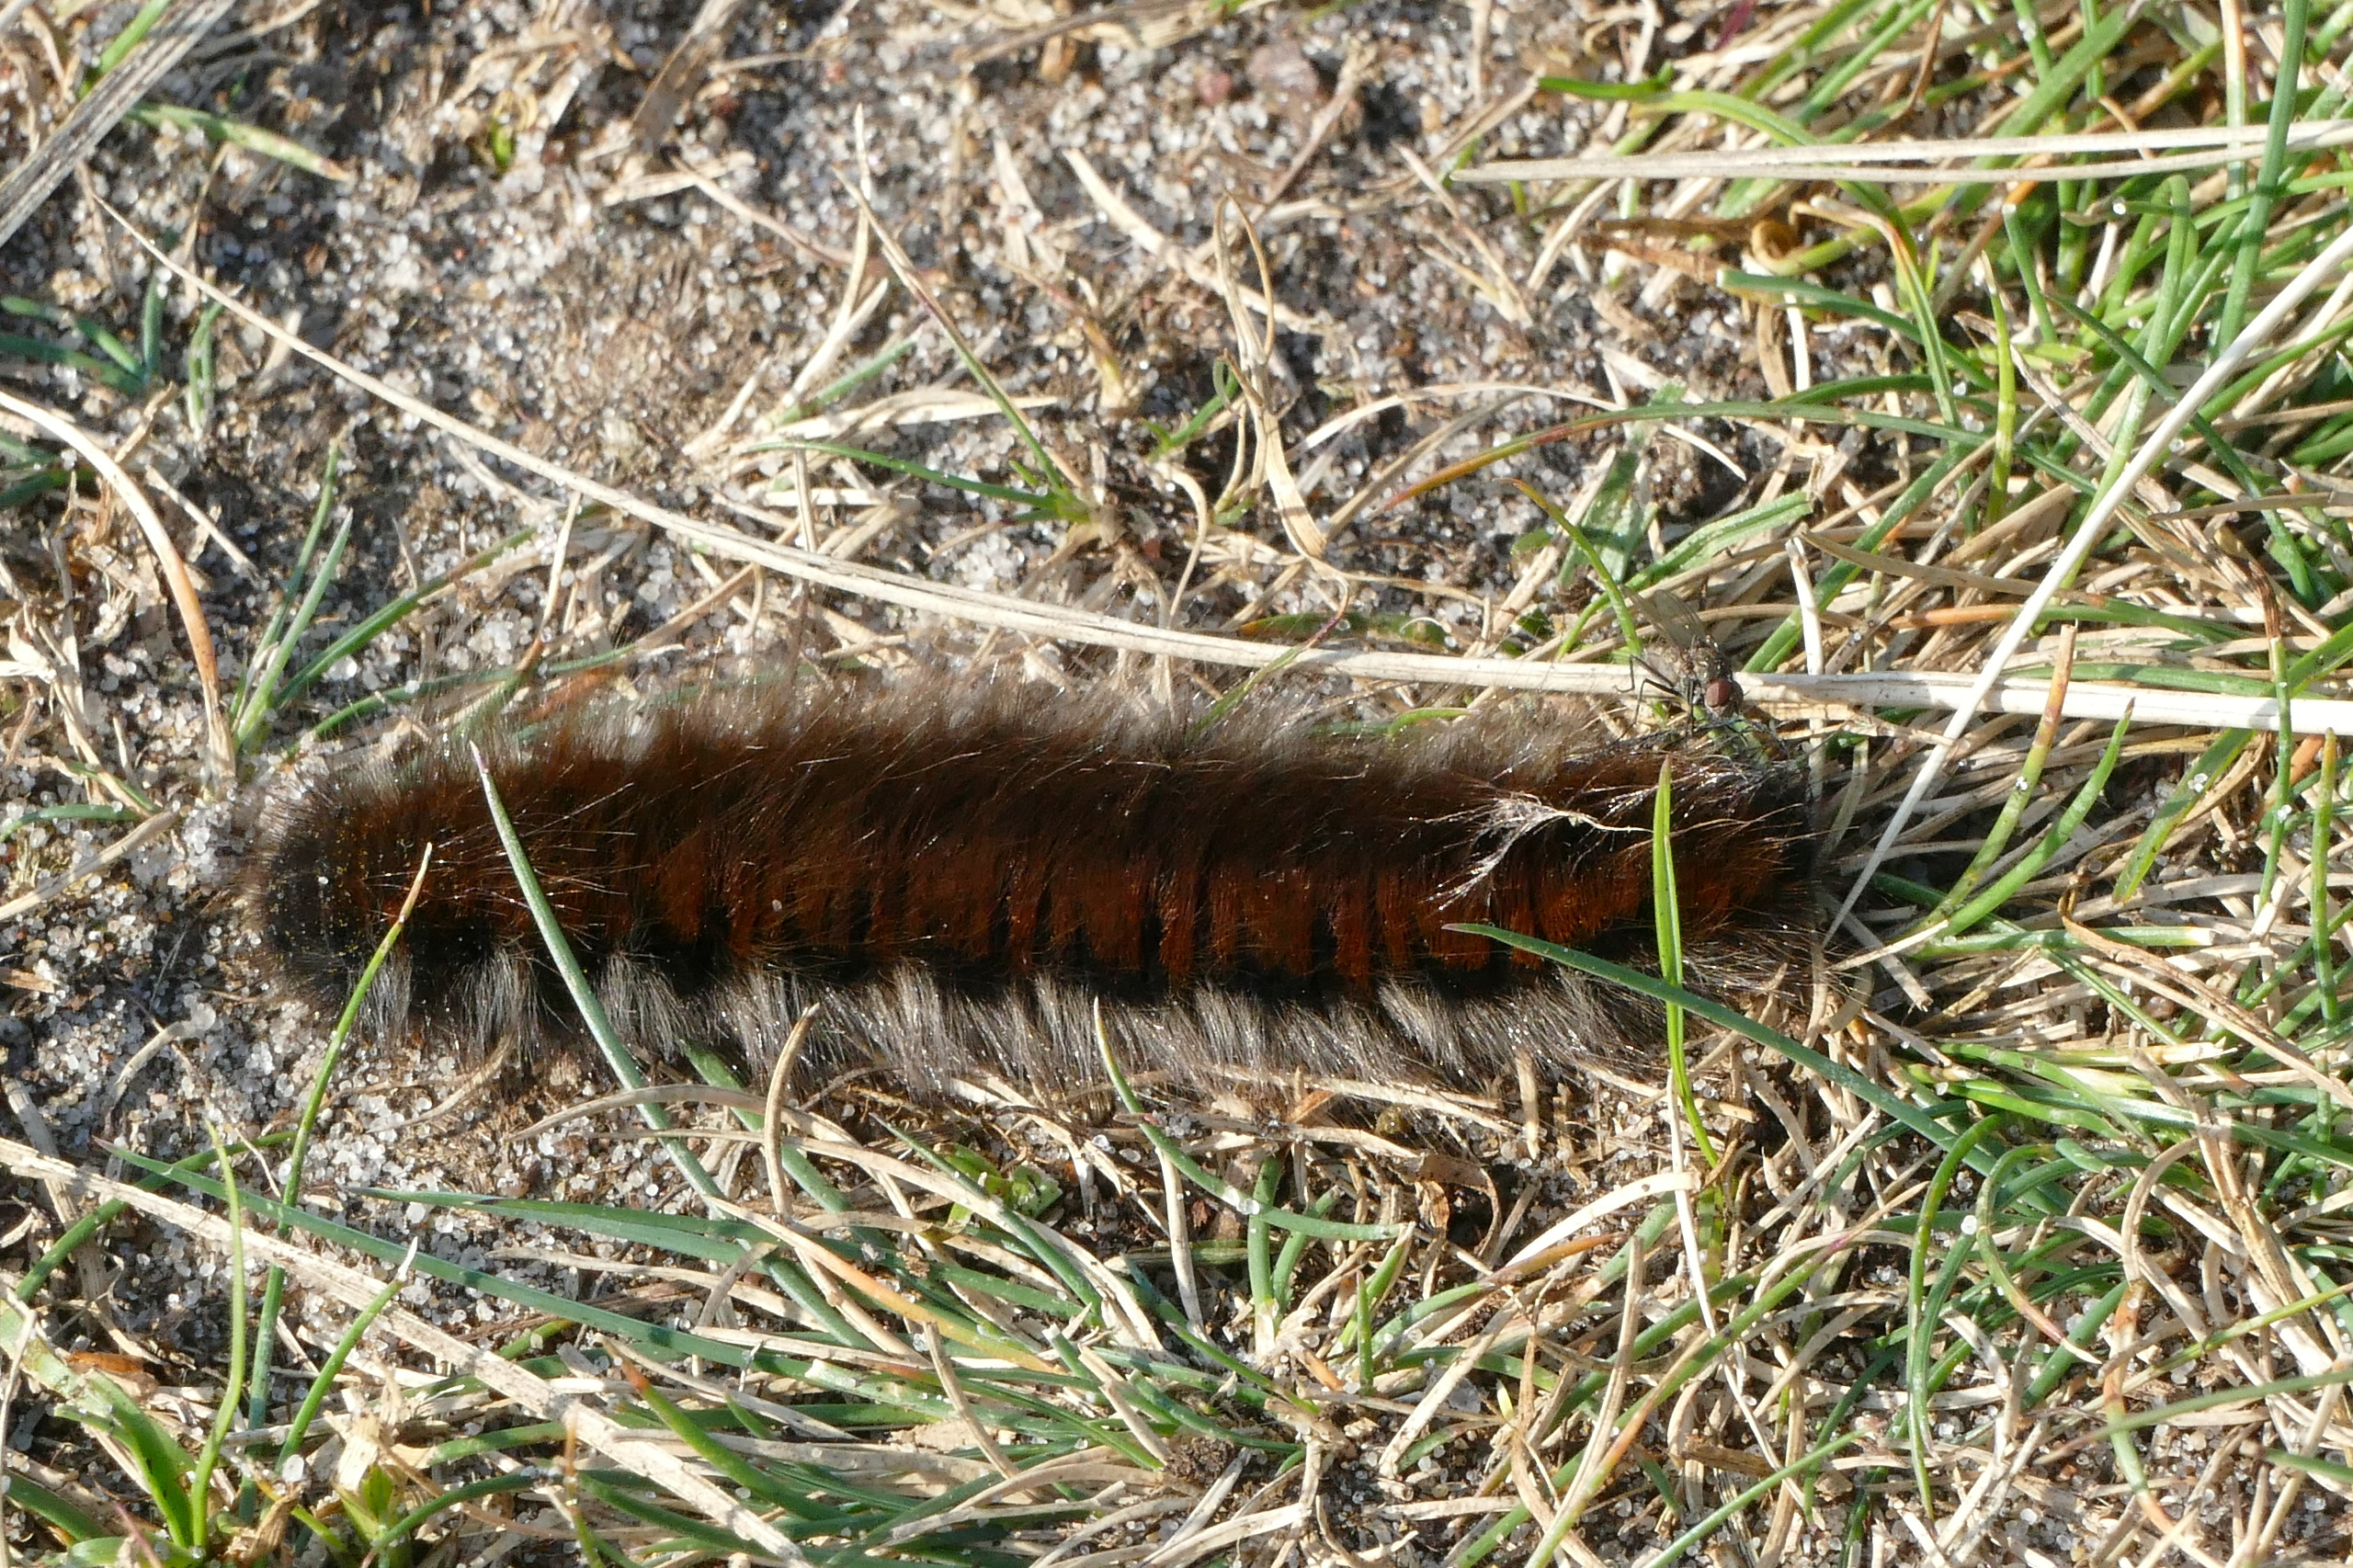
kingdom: Animalia
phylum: Arthropoda
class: Insecta
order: Lepidoptera
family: Lasiocampidae
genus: Macrothylacia
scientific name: Macrothylacia rubi
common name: Brombærspinder
